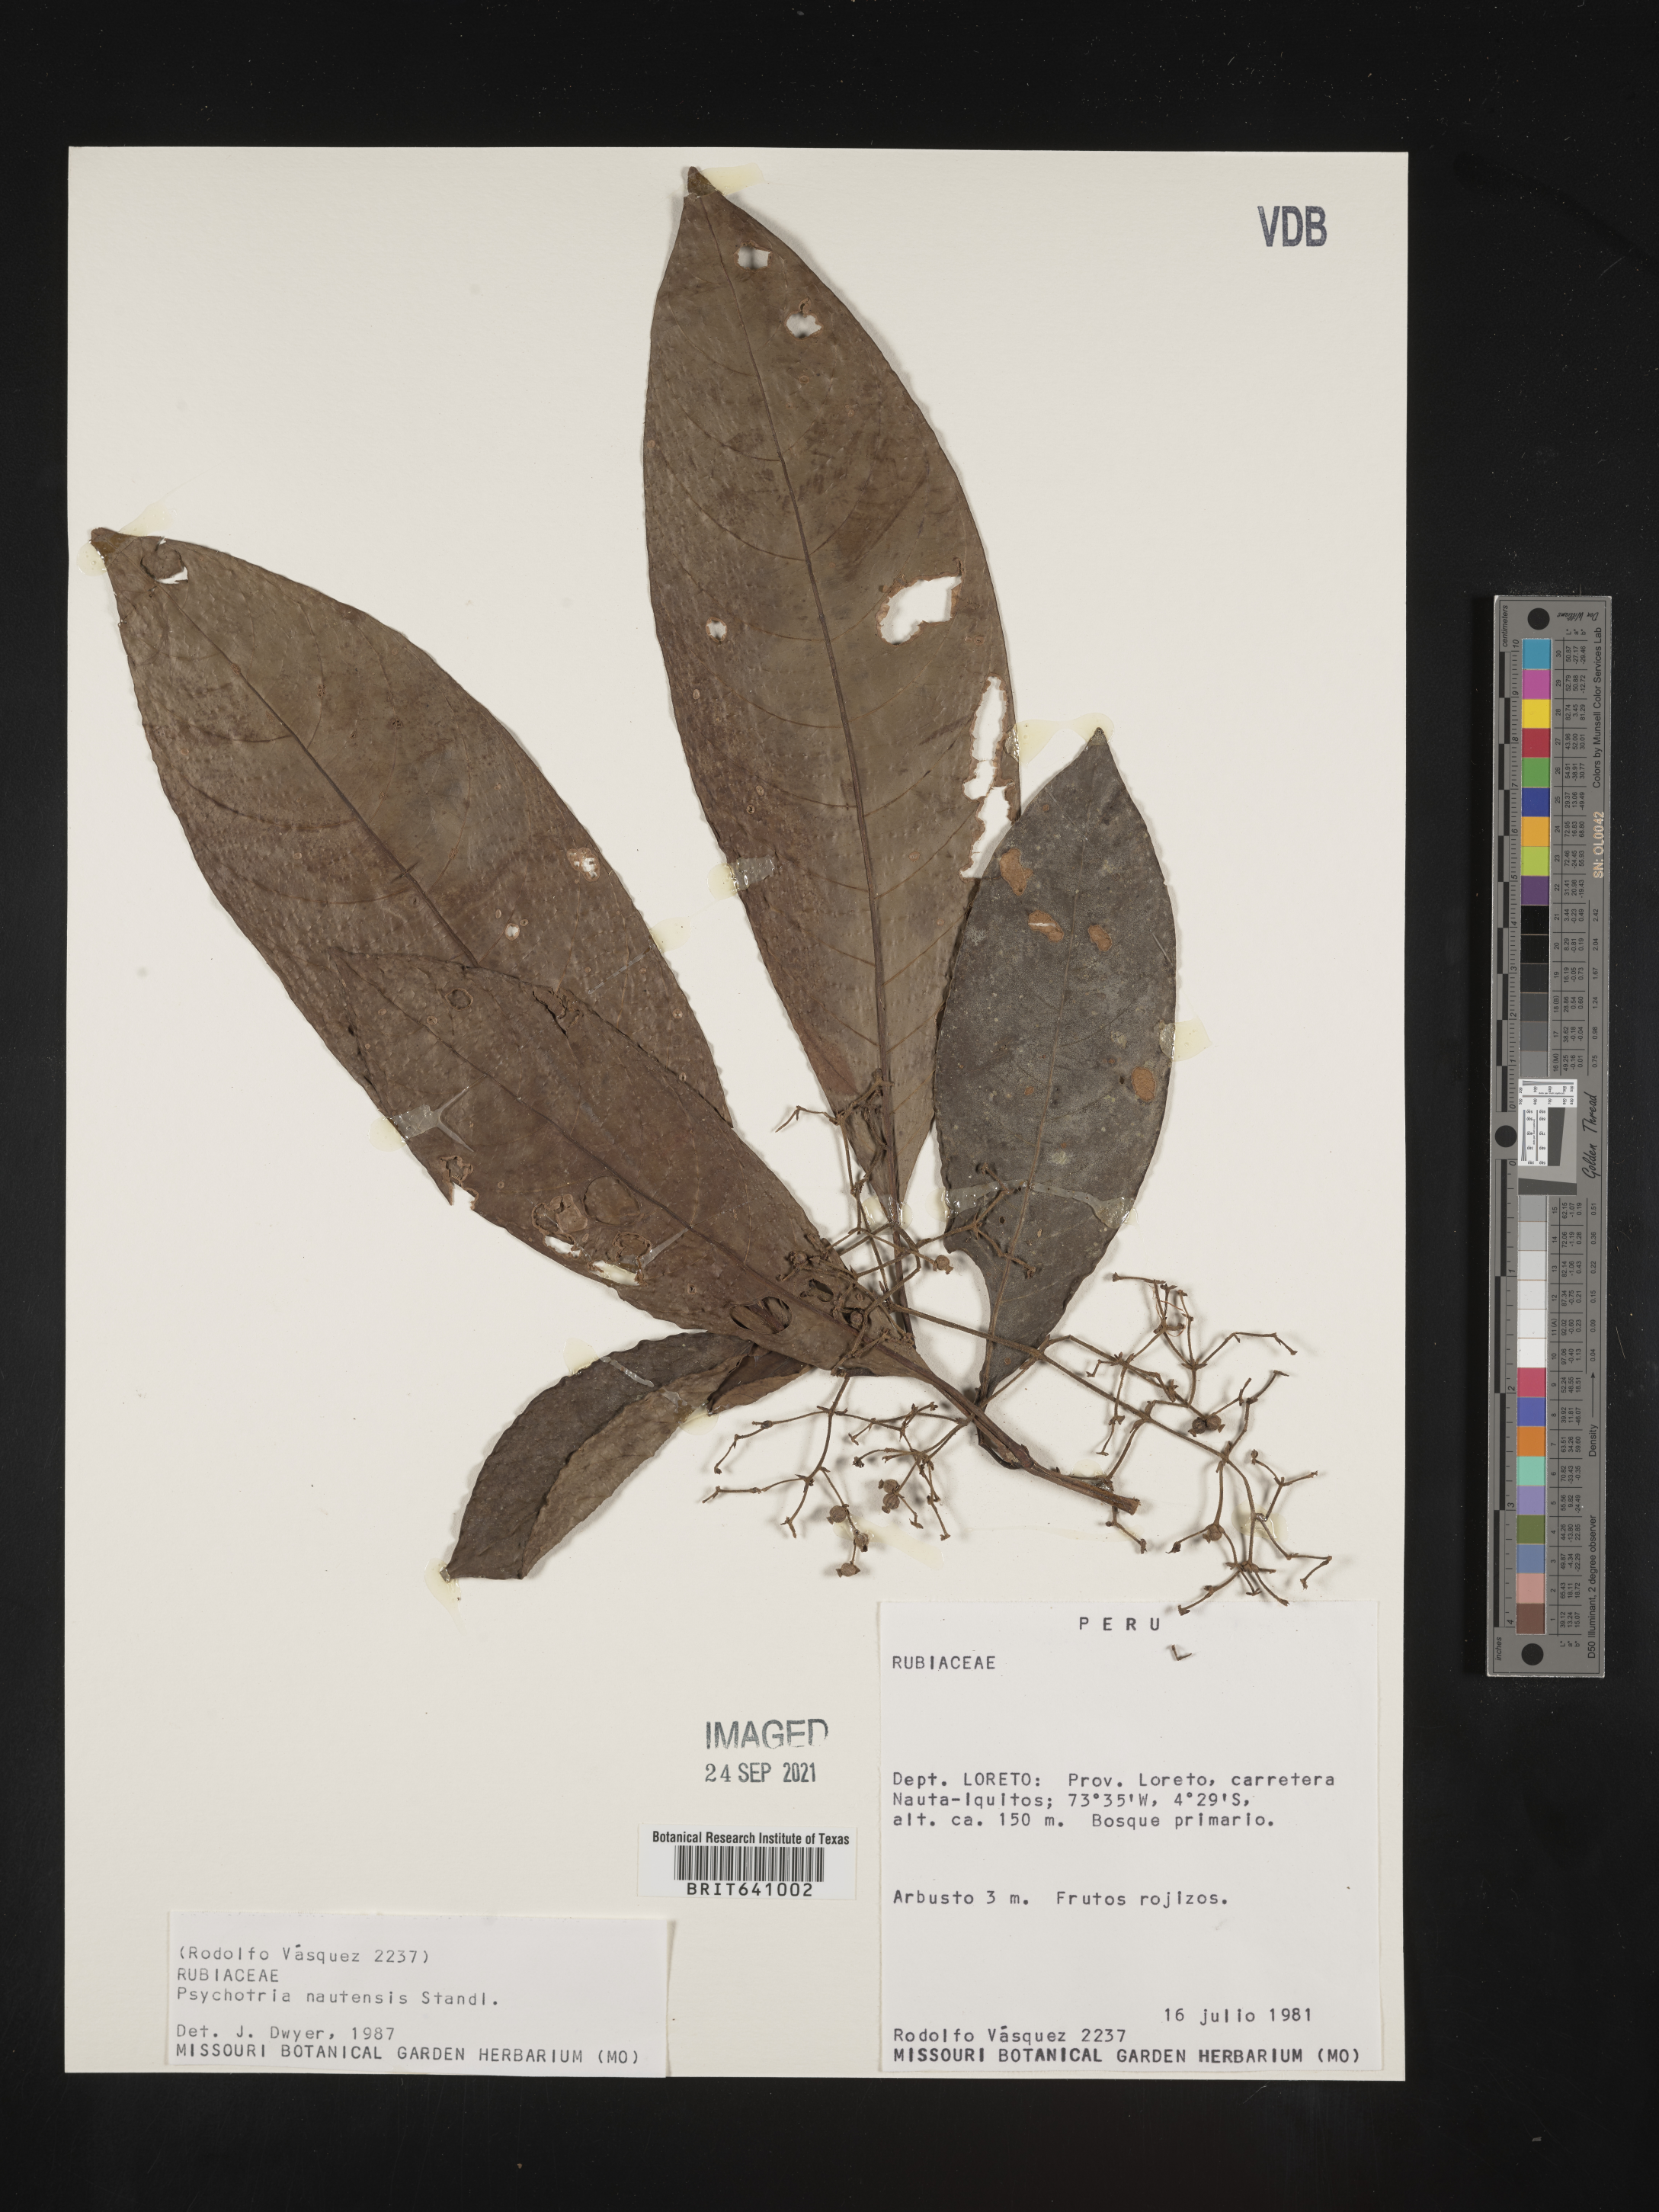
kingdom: Plantae
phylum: Tracheophyta
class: Magnoliopsida
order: Gentianales
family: Rubiaceae
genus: Palicourea
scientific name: Palicourea
